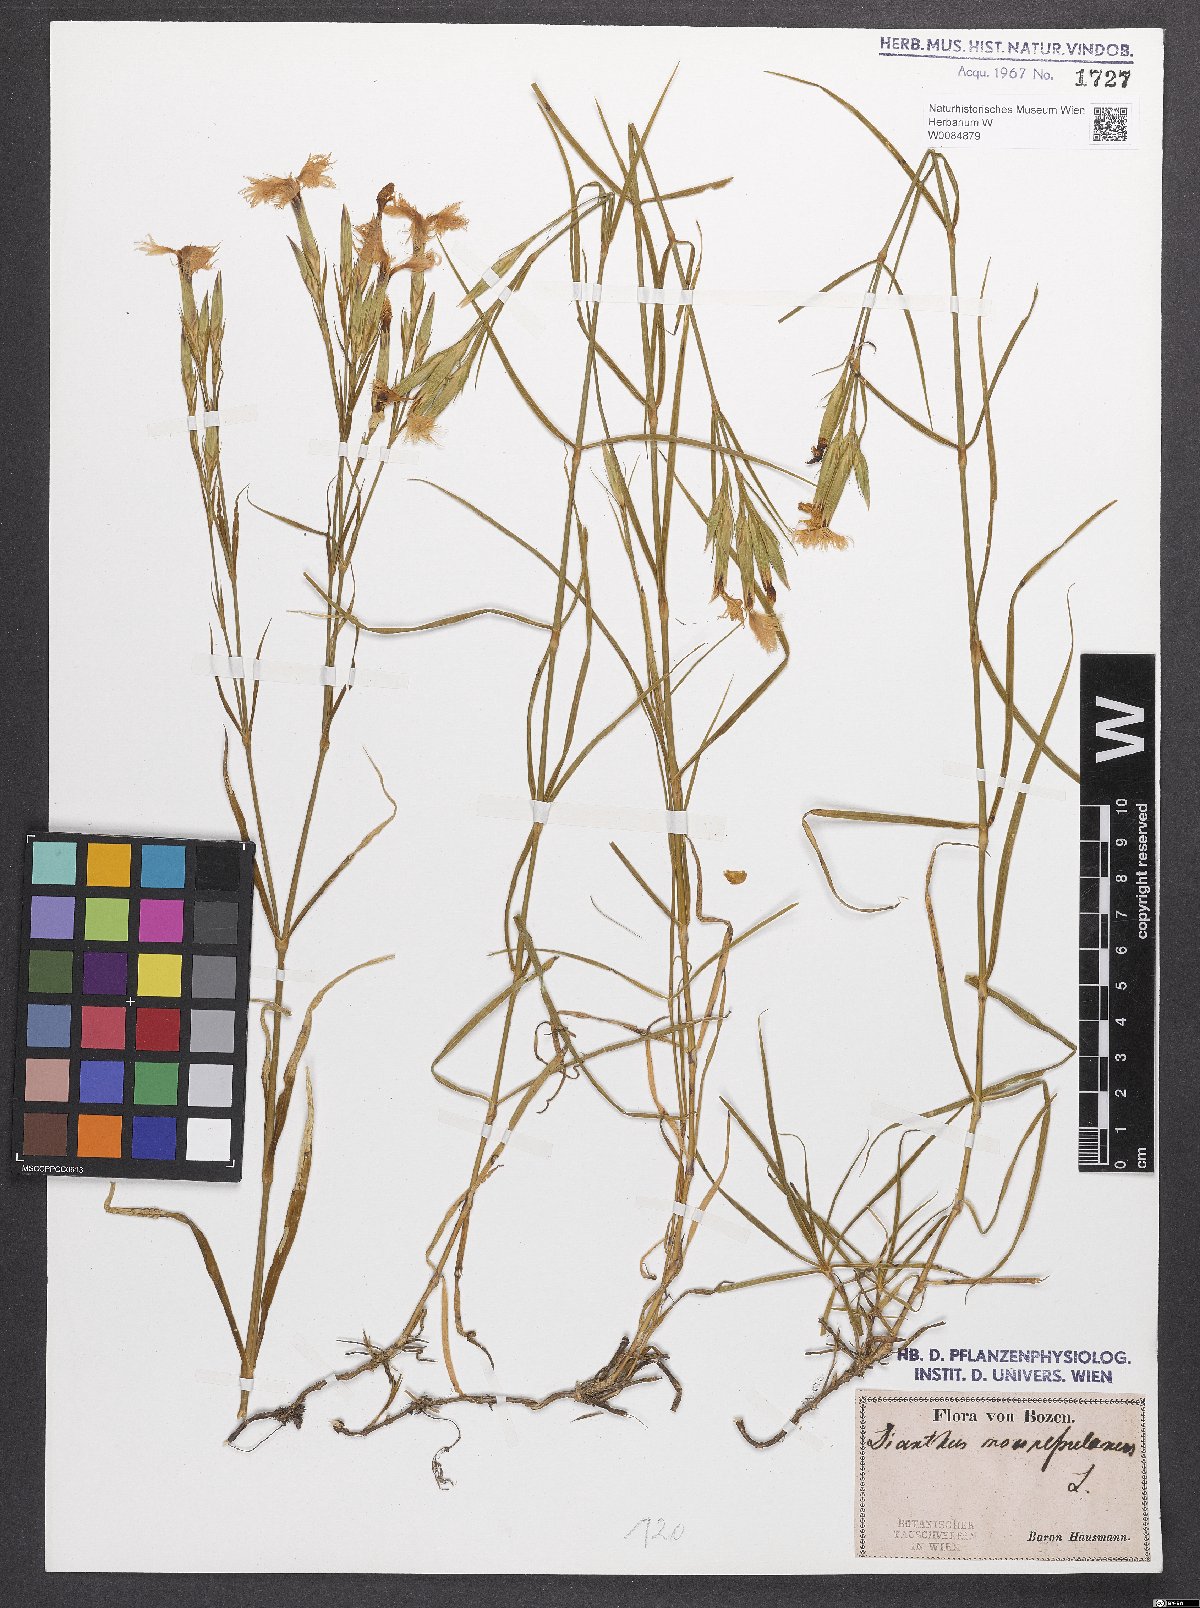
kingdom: Plantae
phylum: Tracheophyta
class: Magnoliopsida
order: Caryophyllales
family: Caryophyllaceae
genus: Dianthus
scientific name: Dianthus hyssopifolius
